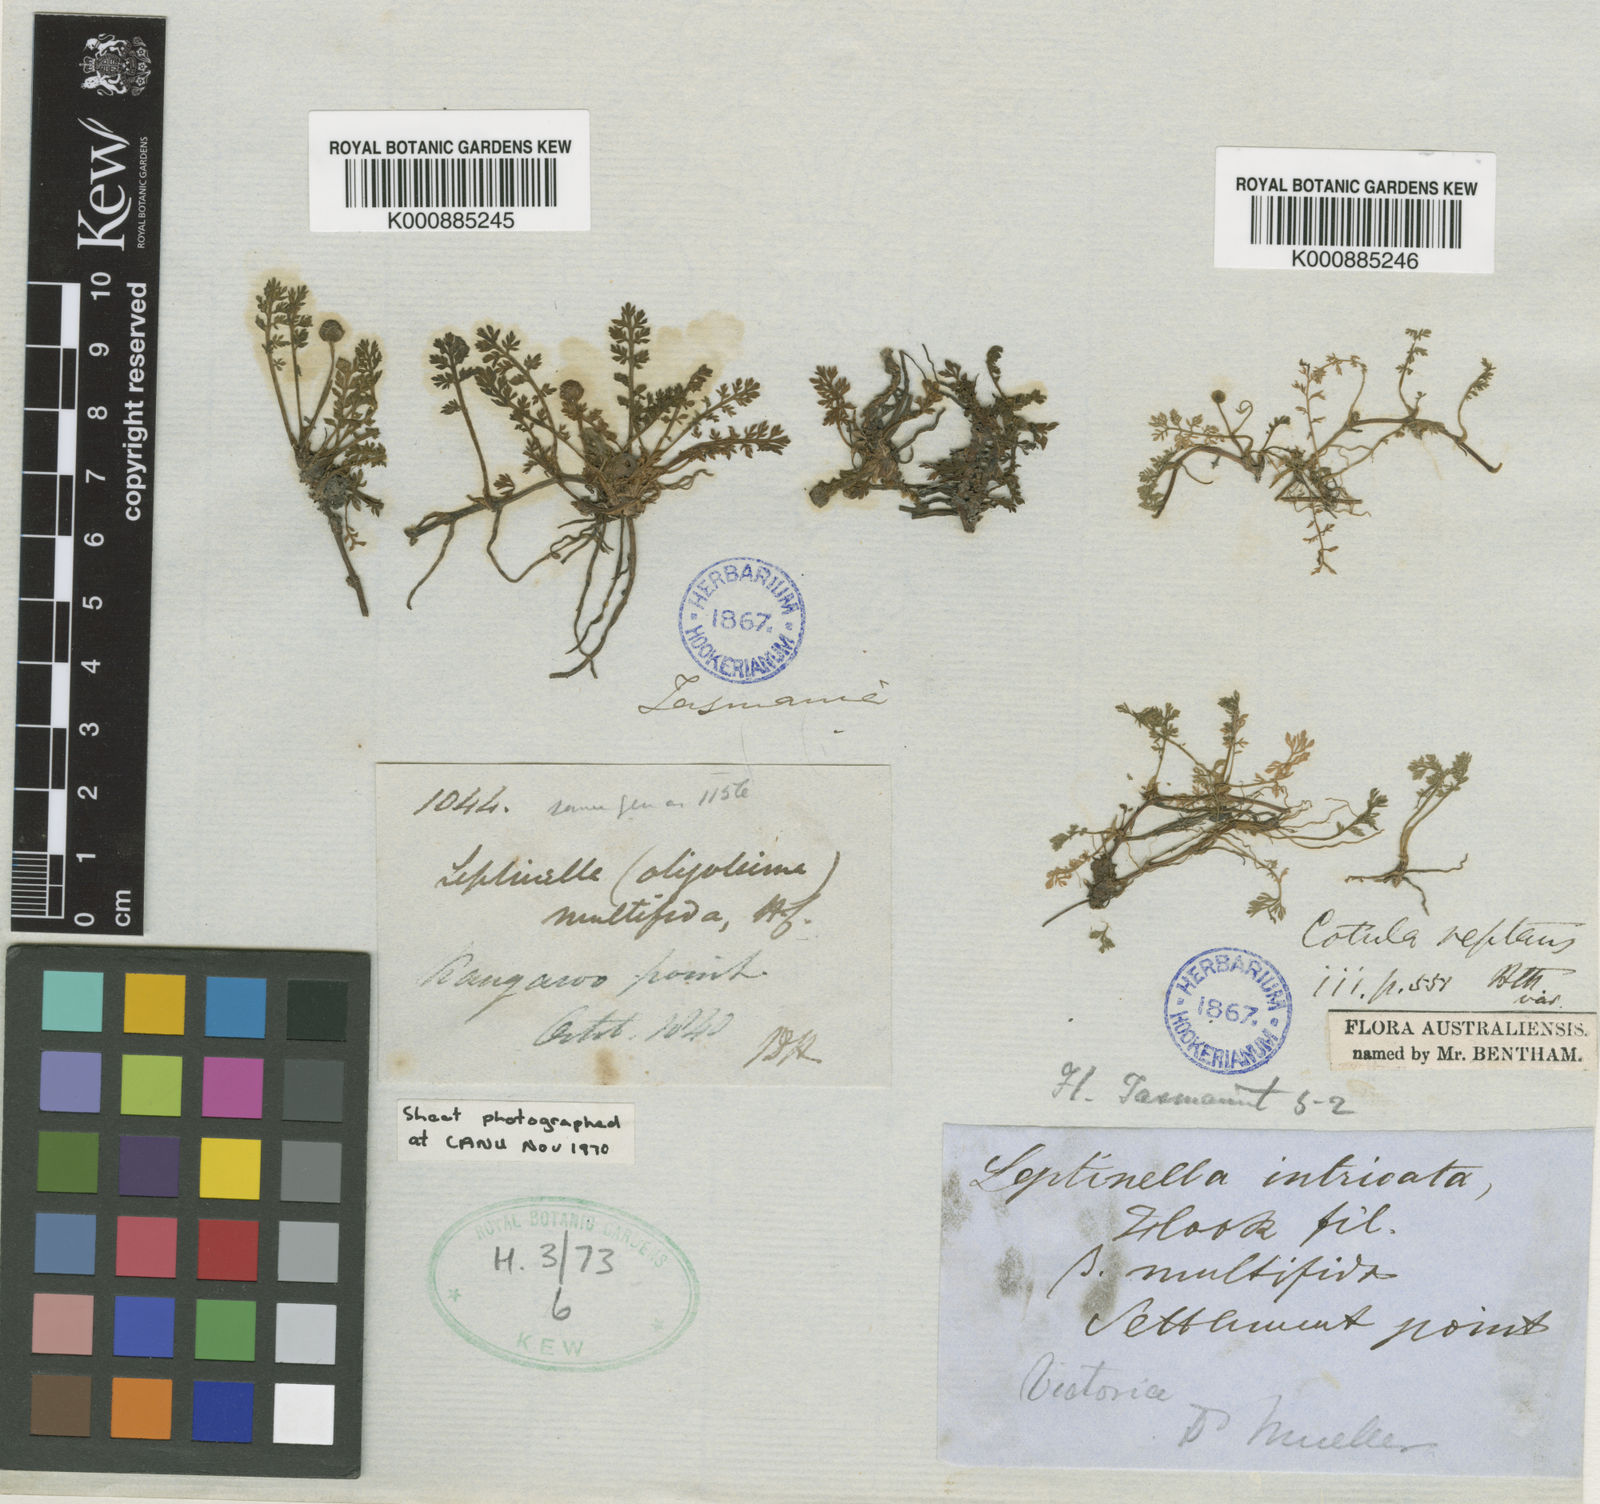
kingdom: Plantae
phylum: Tracheophyta
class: Magnoliopsida
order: Asterales
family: Asteraceae
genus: Leptinella
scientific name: Leptinella reptans
